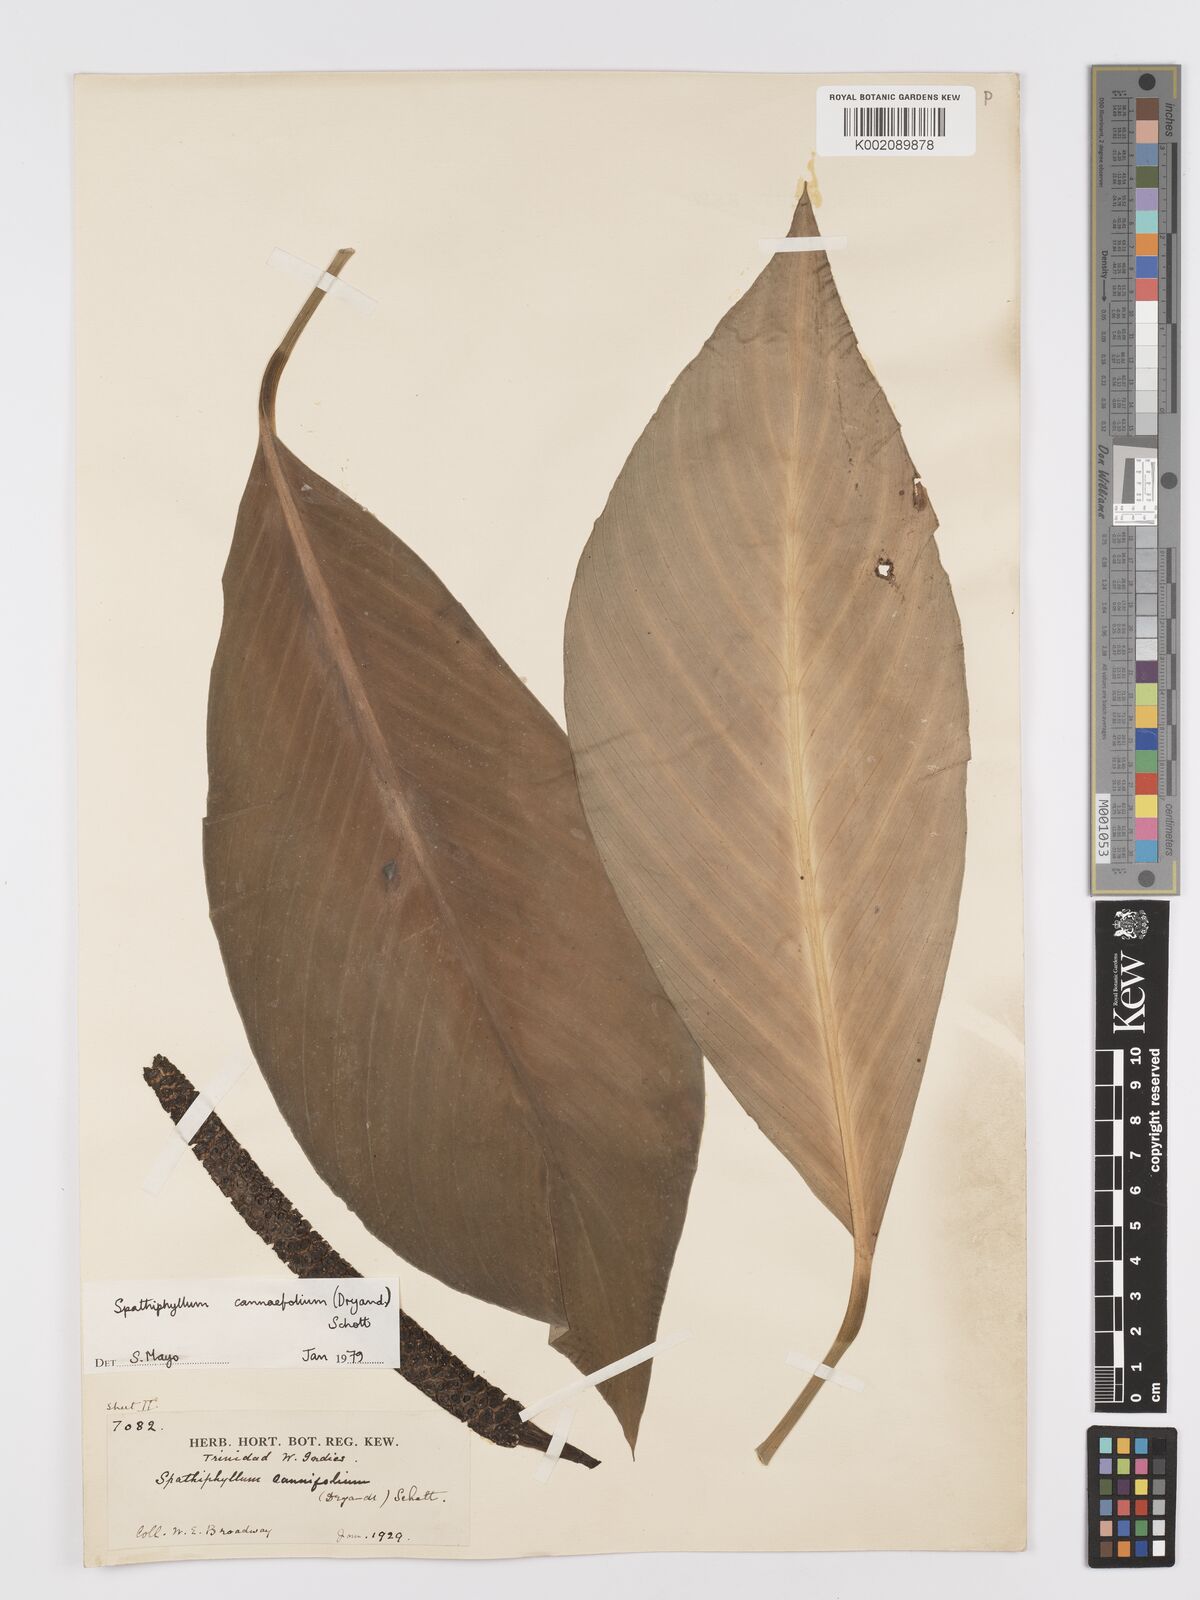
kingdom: Plantae
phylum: Tracheophyta
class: Liliopsida
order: Alismatales
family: Araceae
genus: Spathiphyllum
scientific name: Spathiphyllum cannifolium
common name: Spatheflower
